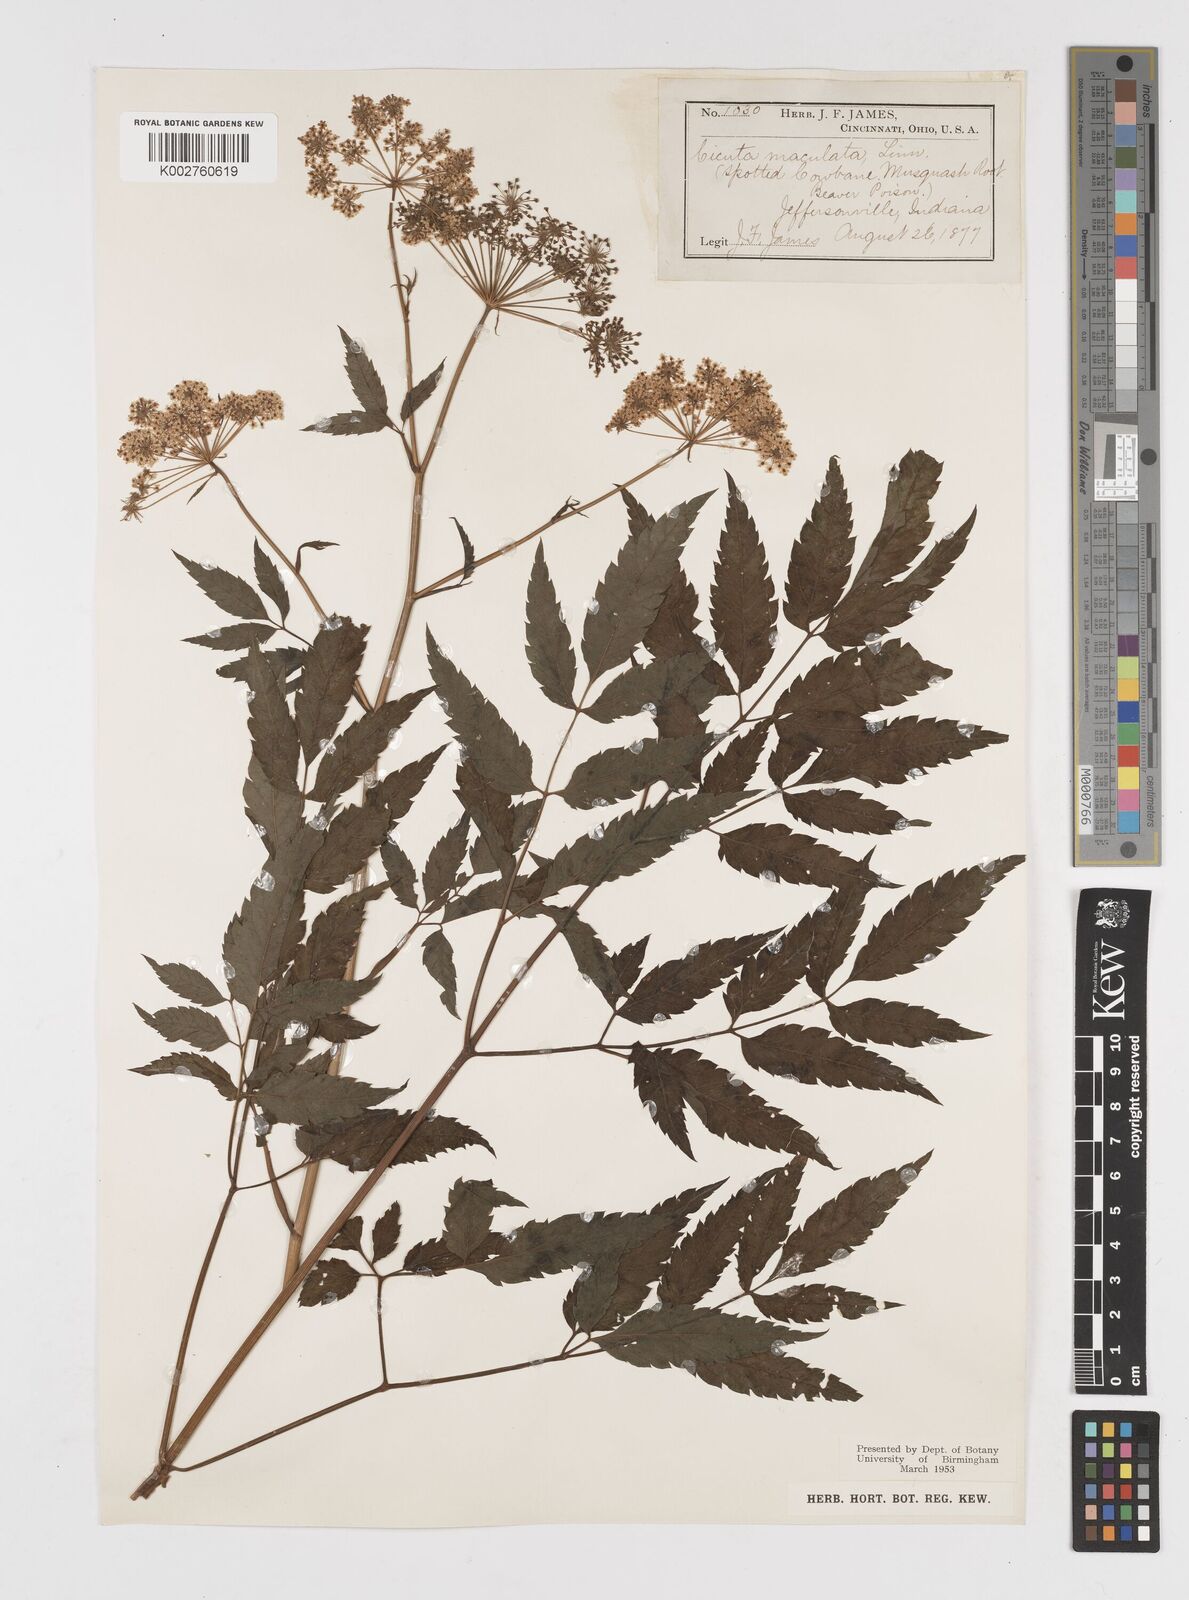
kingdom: Plantae
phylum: Tracheophyta
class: Magnoliopsida
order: Apiales
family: Apiaceae
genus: Cicuta
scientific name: Cicuta maculata
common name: Spotted cowbane
